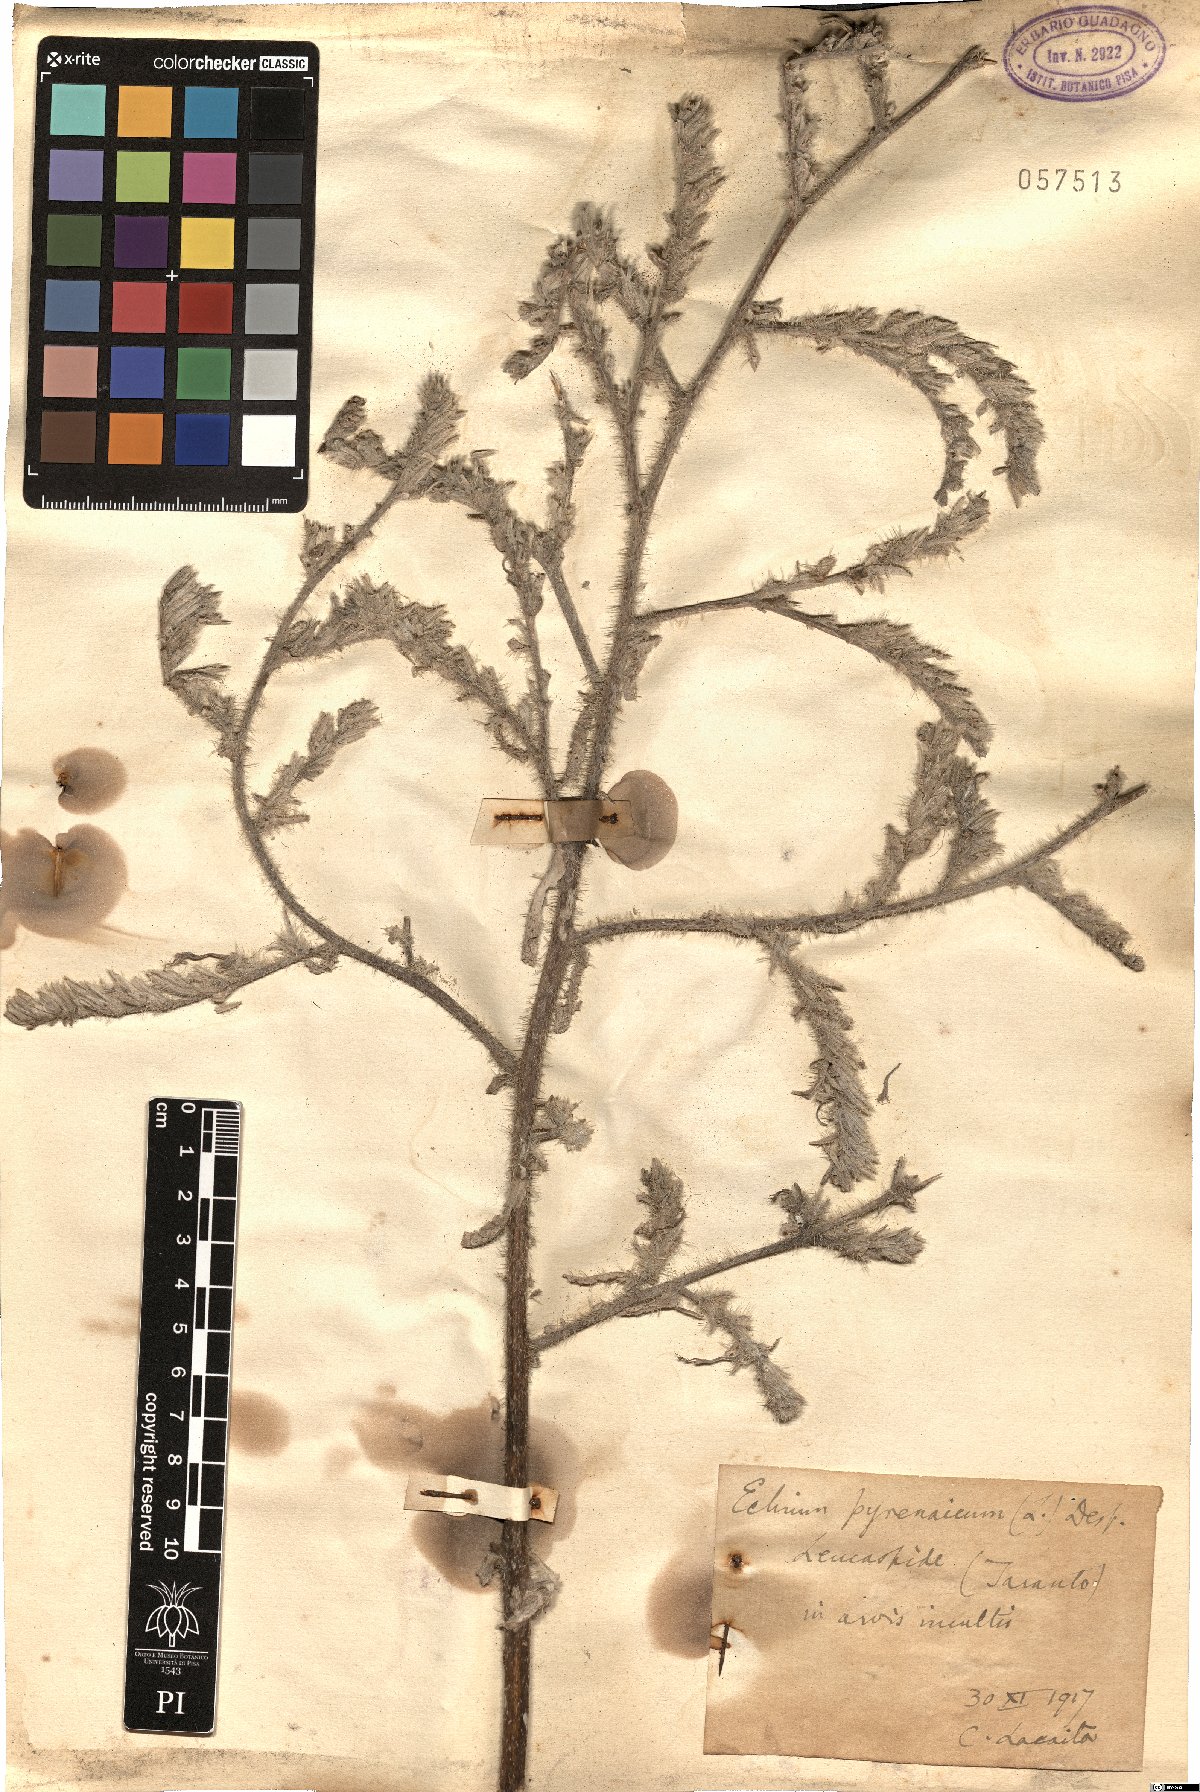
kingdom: Plantae
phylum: Tracheophyta
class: Magnoliopsida
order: Boraginales
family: Boraginaceae
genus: Echium
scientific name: Echium asperrimum
